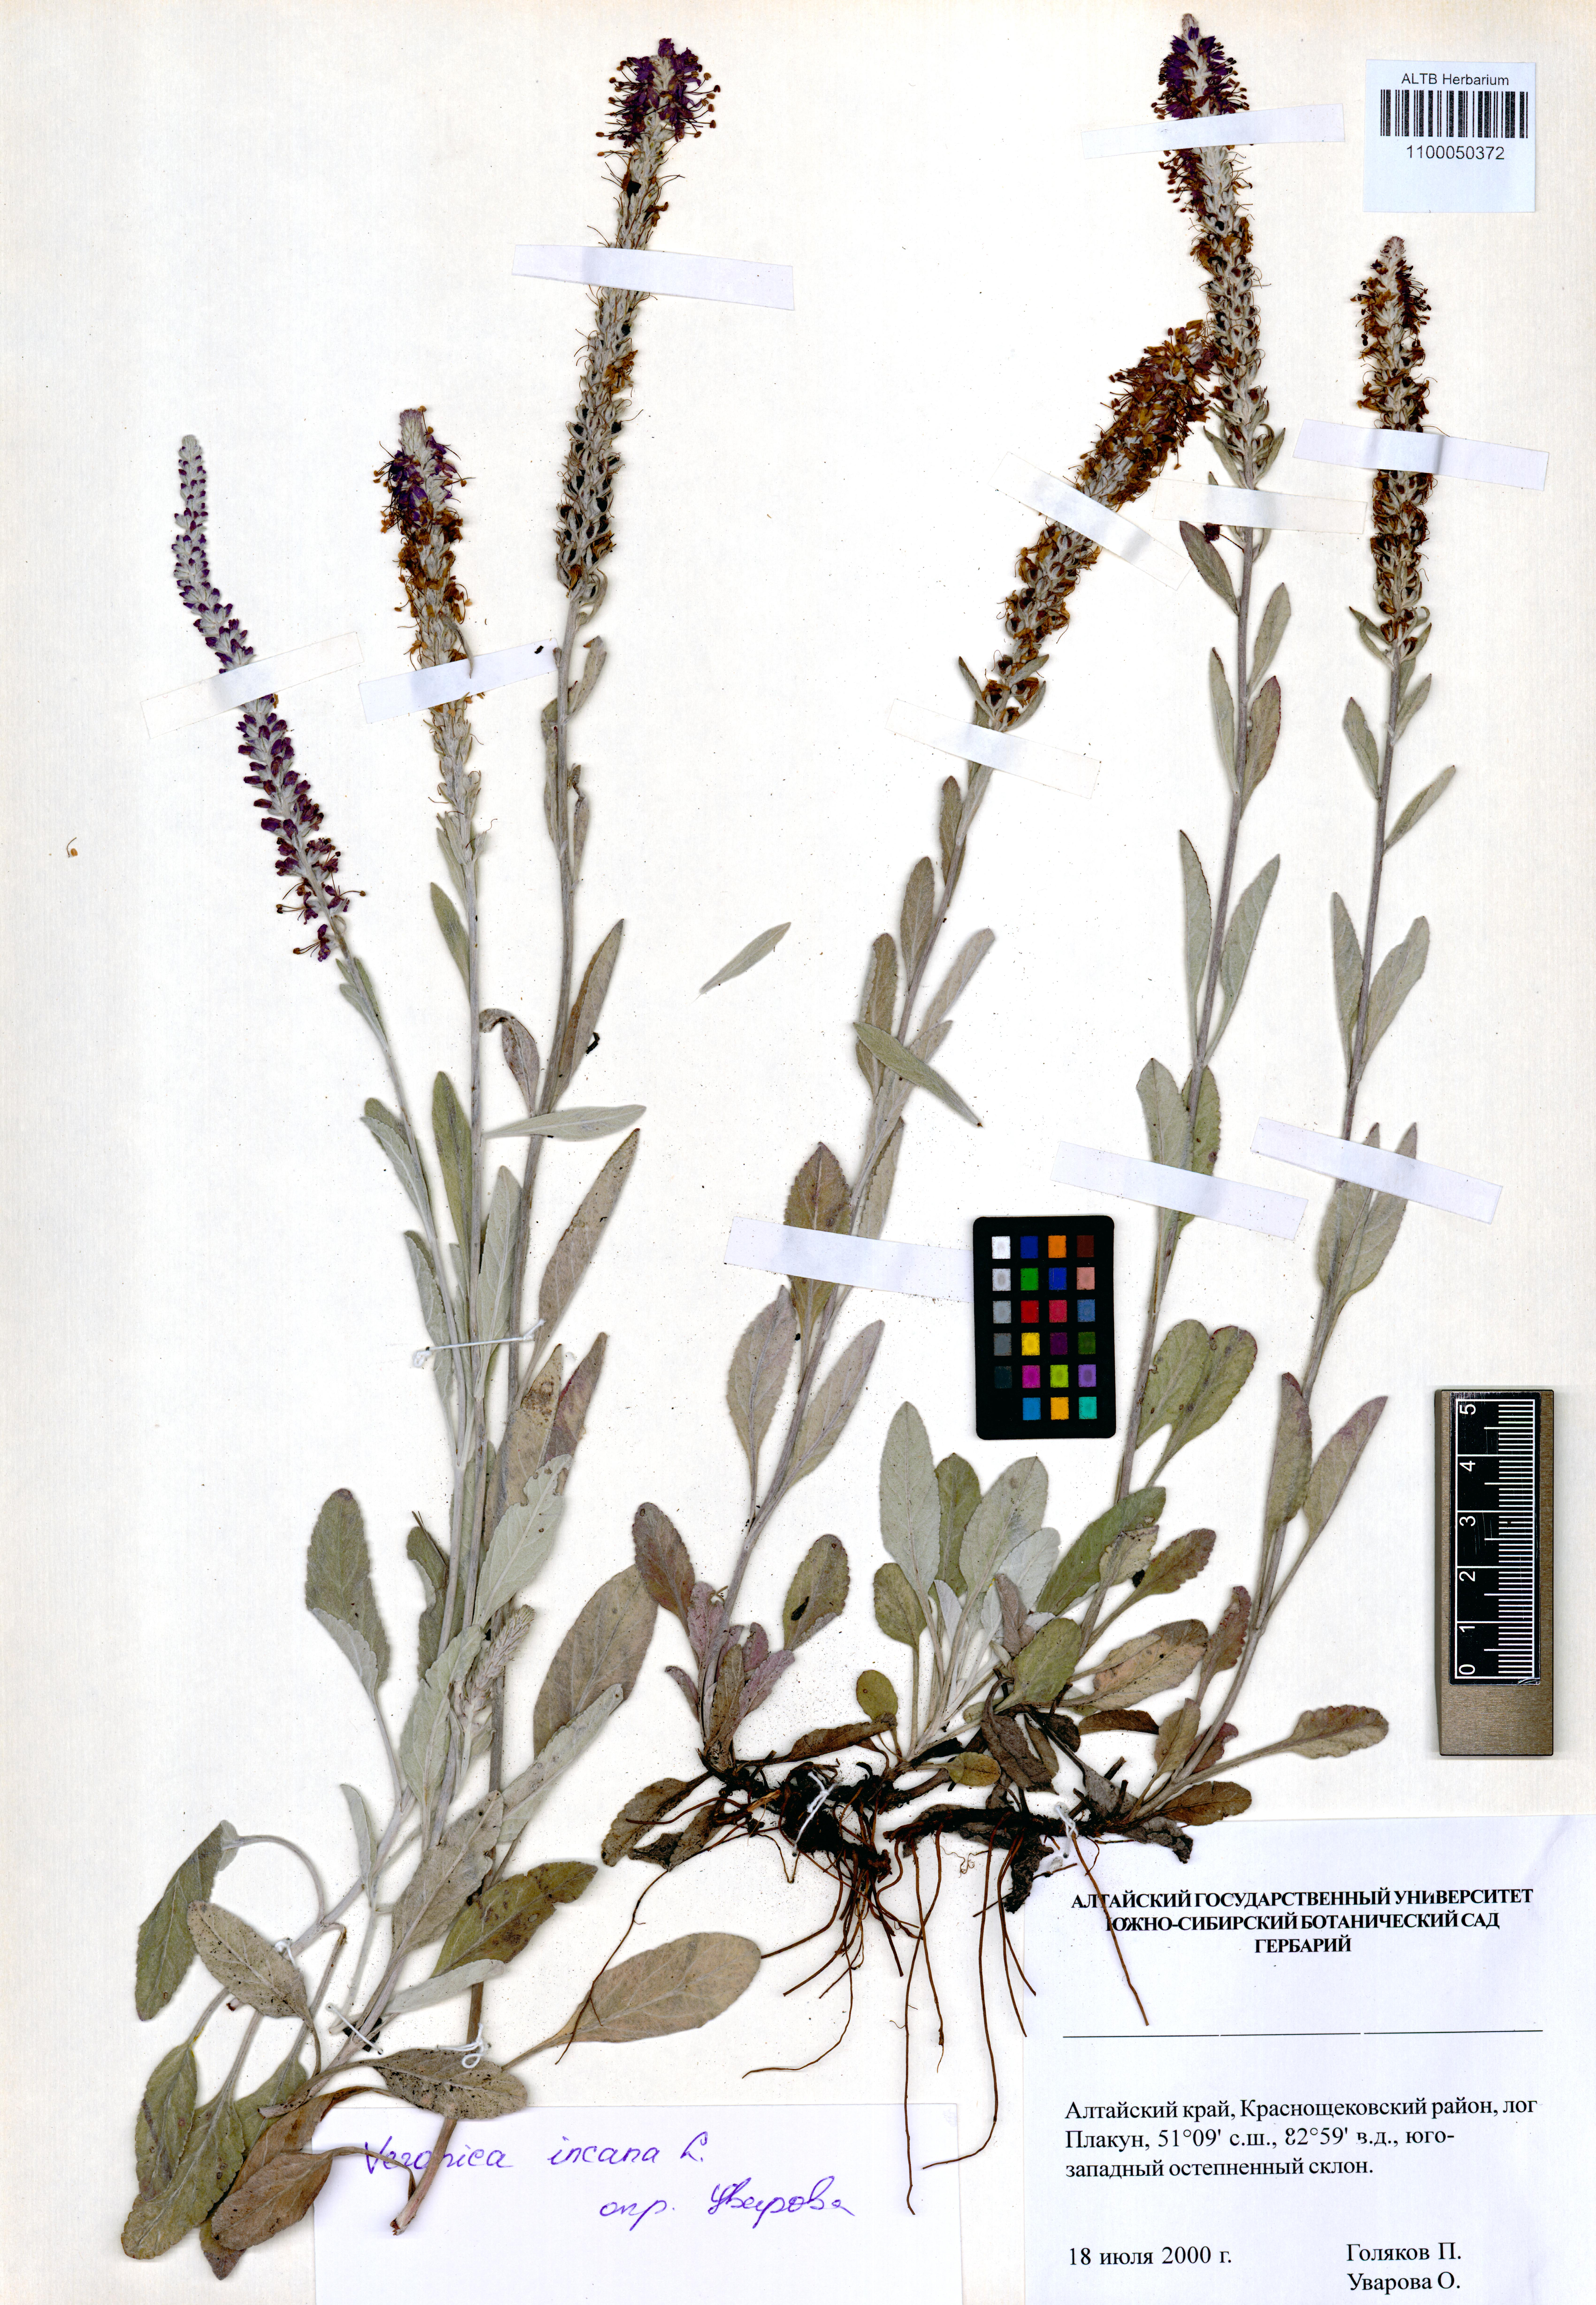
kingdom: Plantae
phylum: Tracheophyta
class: Magnoliopsida
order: Lamiales
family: Plantaginaceae
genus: Veronica
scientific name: Veronica incana
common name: Silver speedwell
